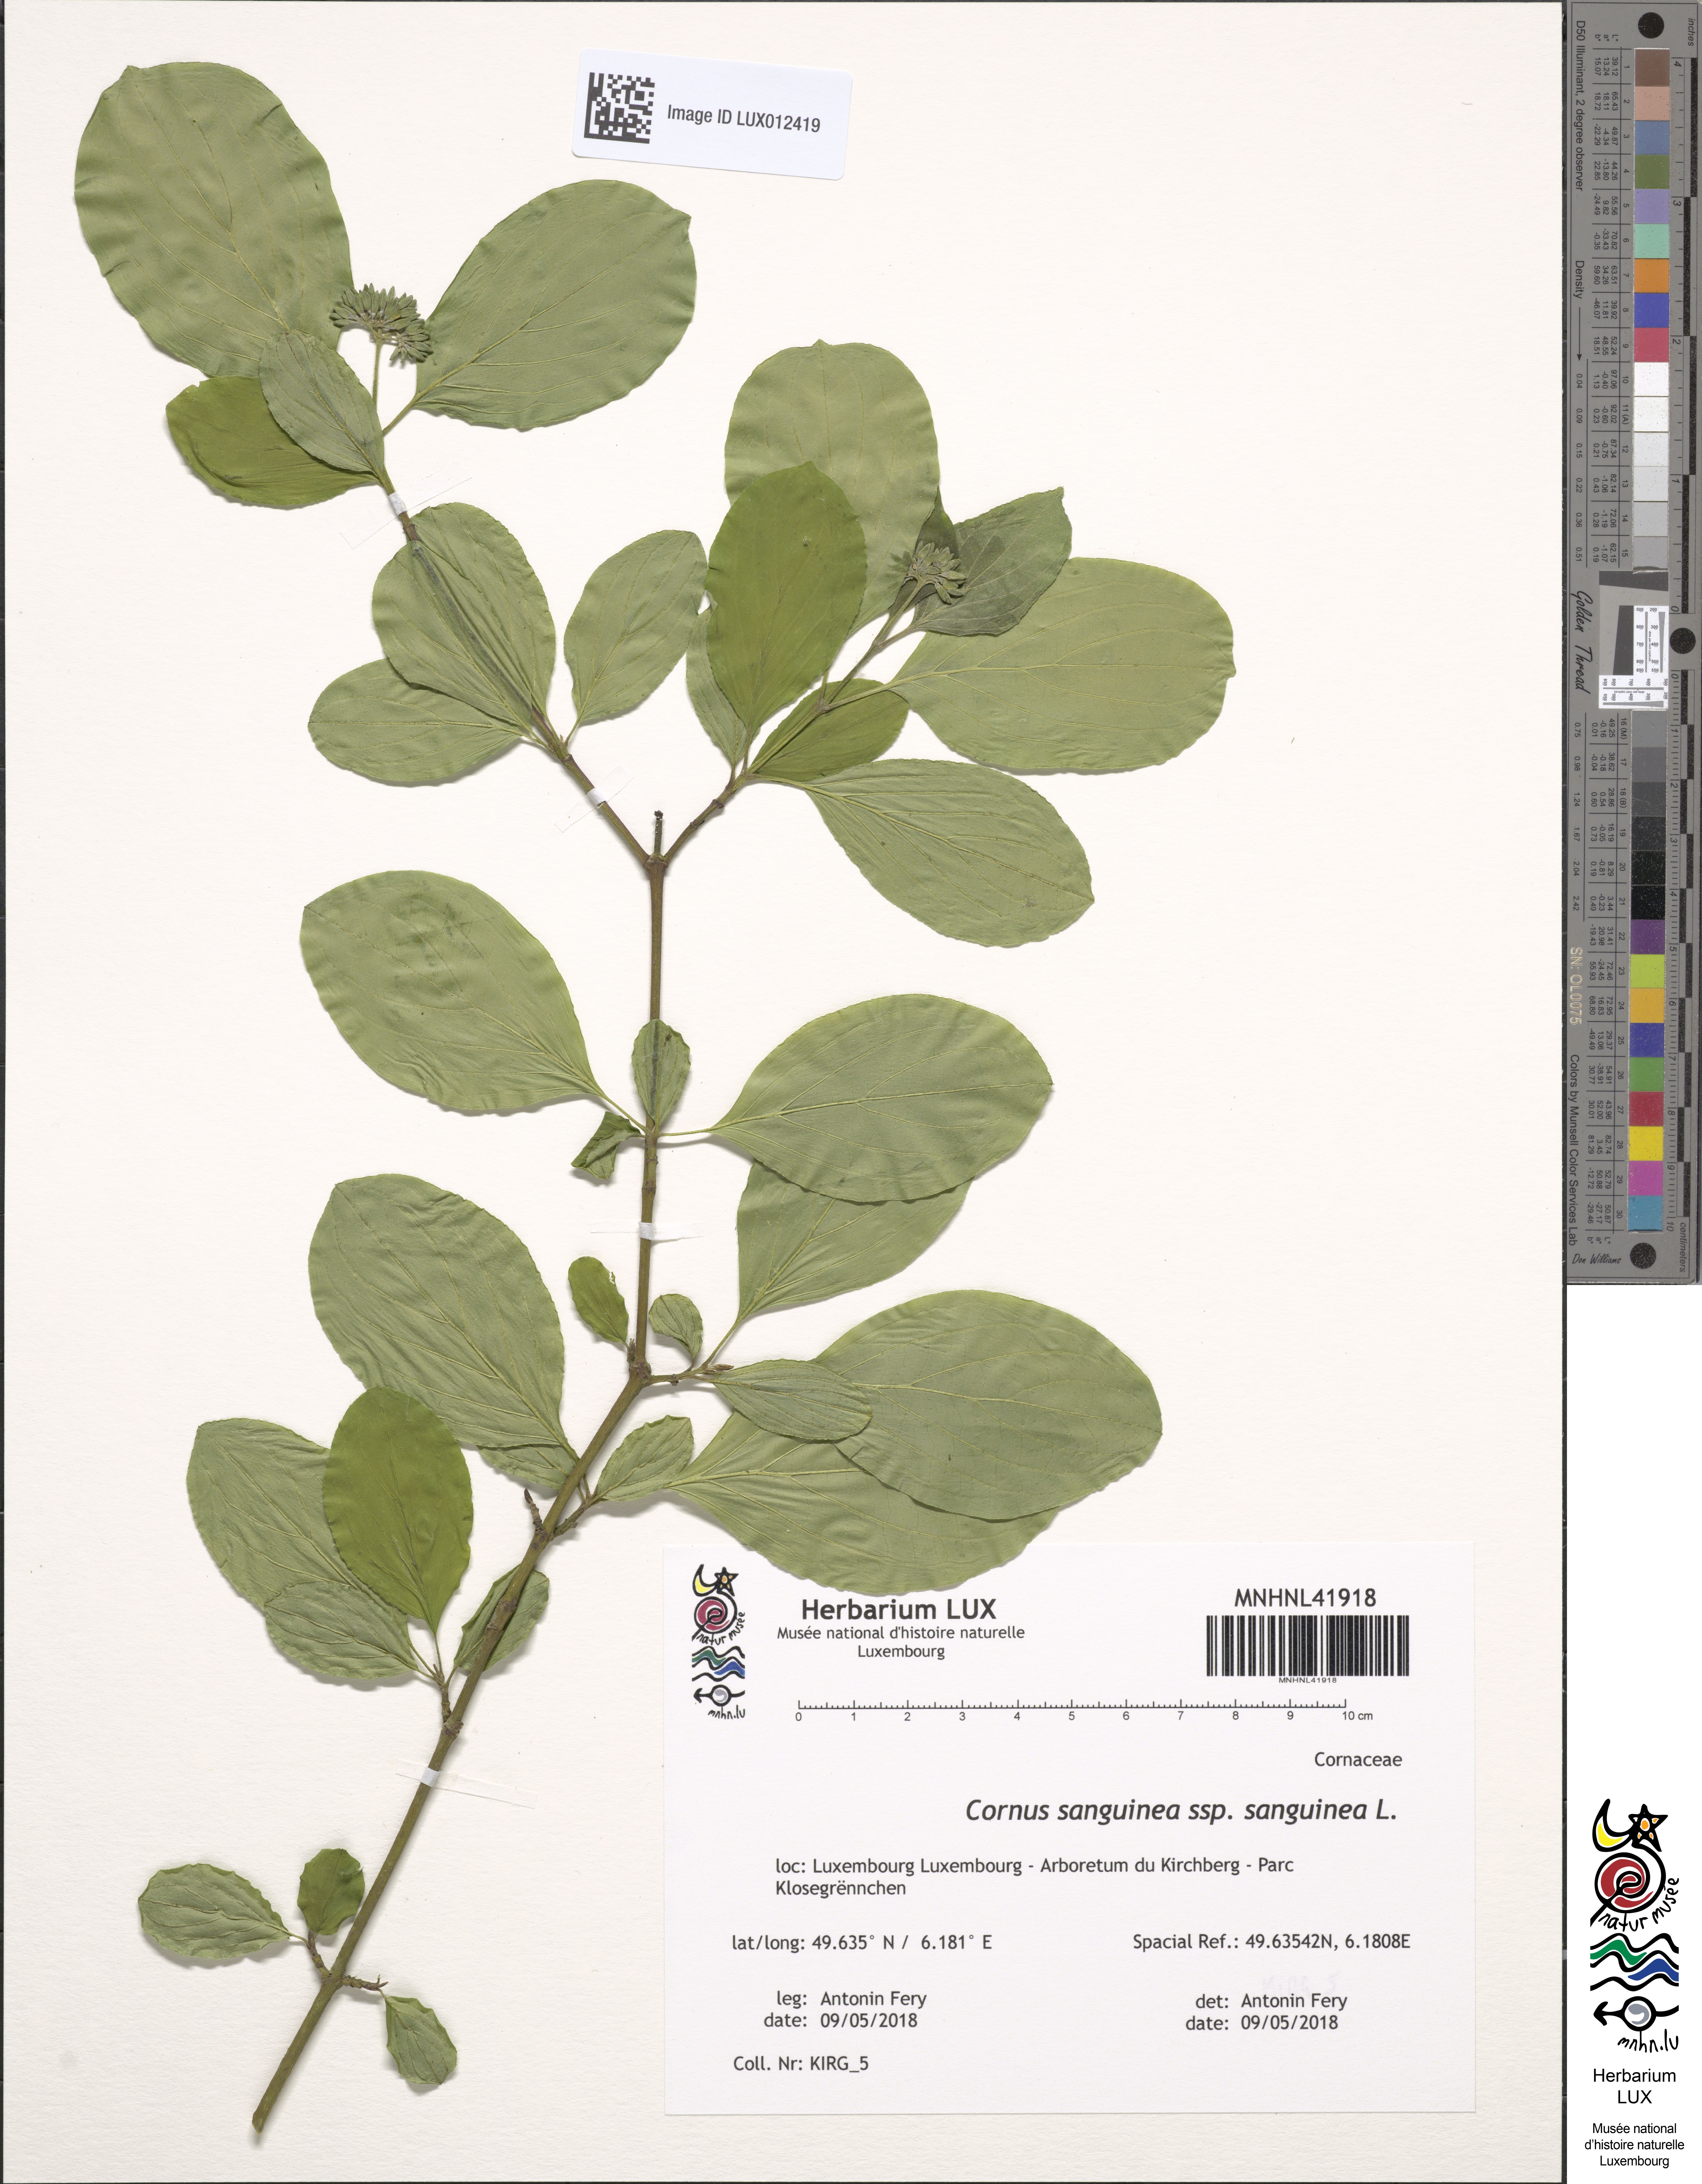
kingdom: Plantae
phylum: Tracheophyta
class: Magnoliopsida
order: Cornales
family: Cornaceae
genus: Cornus
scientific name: Cornus sanguinea
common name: Dogwood
